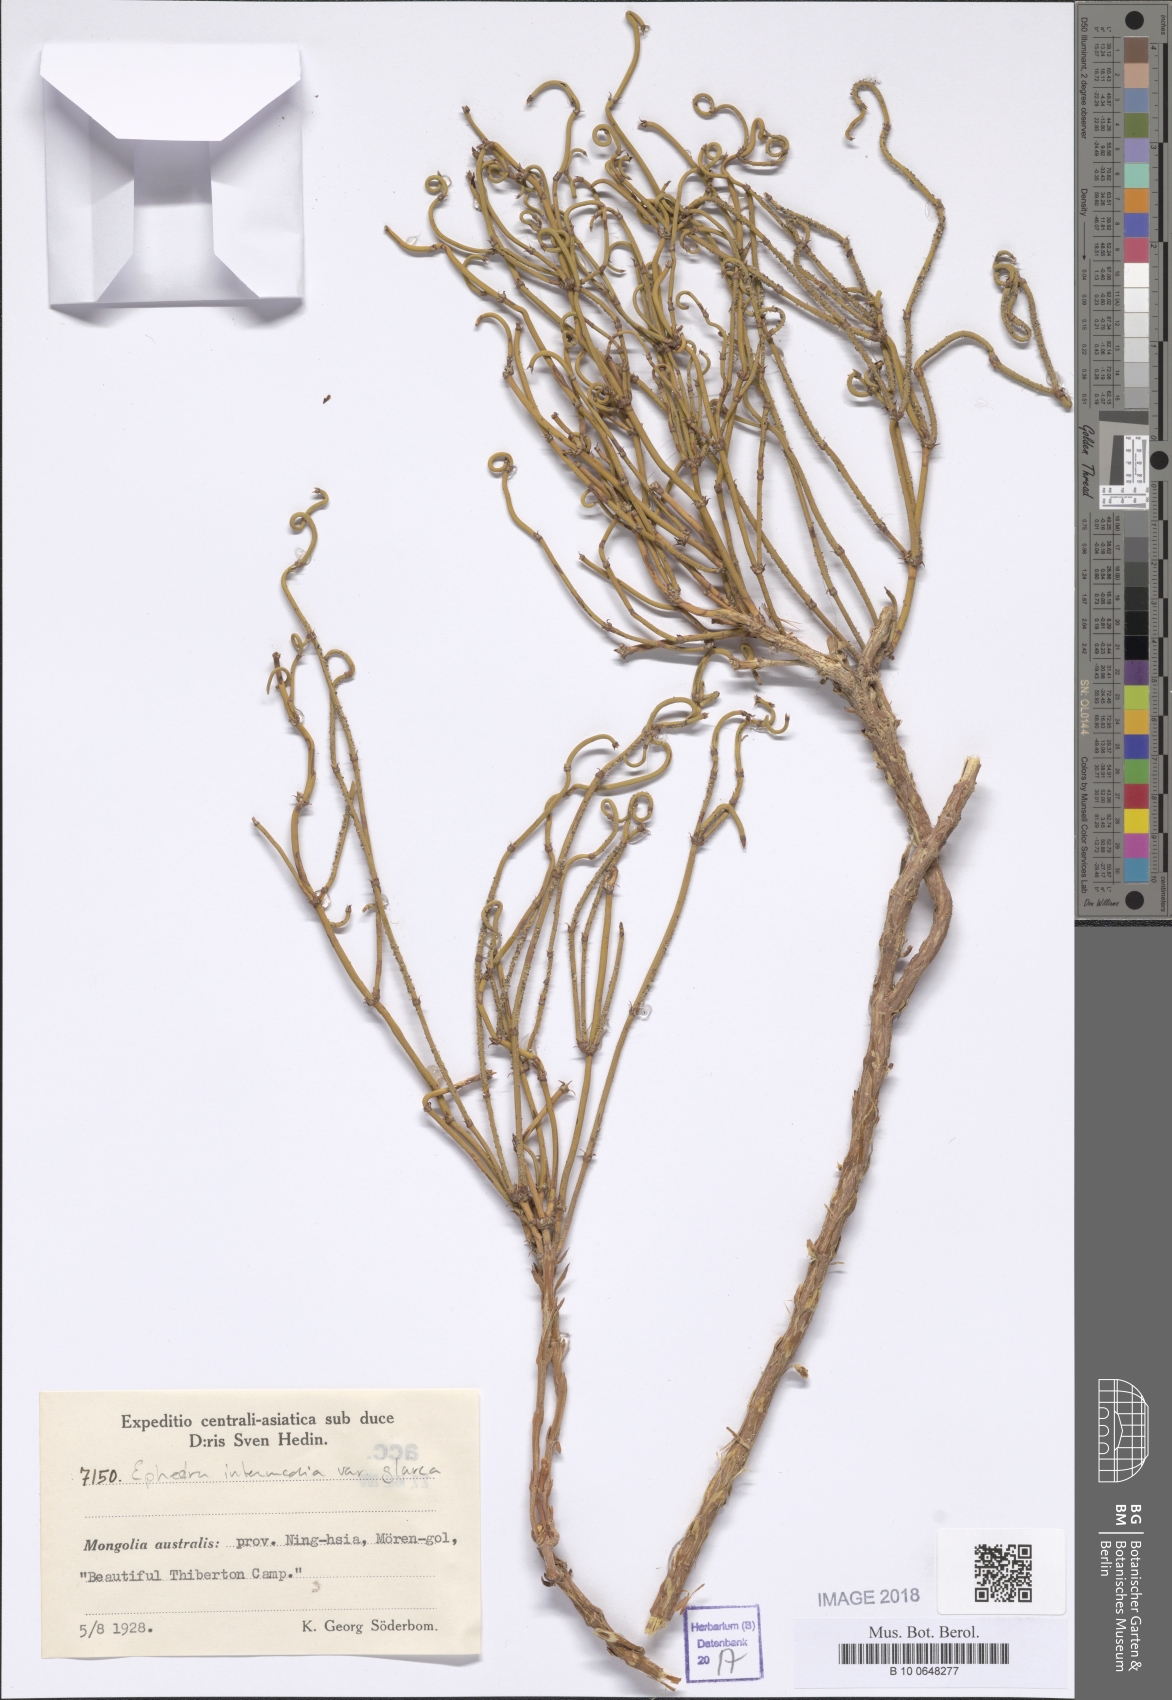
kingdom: Plantae
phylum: Tracheophyta
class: Gnetopsida
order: Ephedrales
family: Ephedraceae
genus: Ephedra
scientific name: Ephedra intermedia
